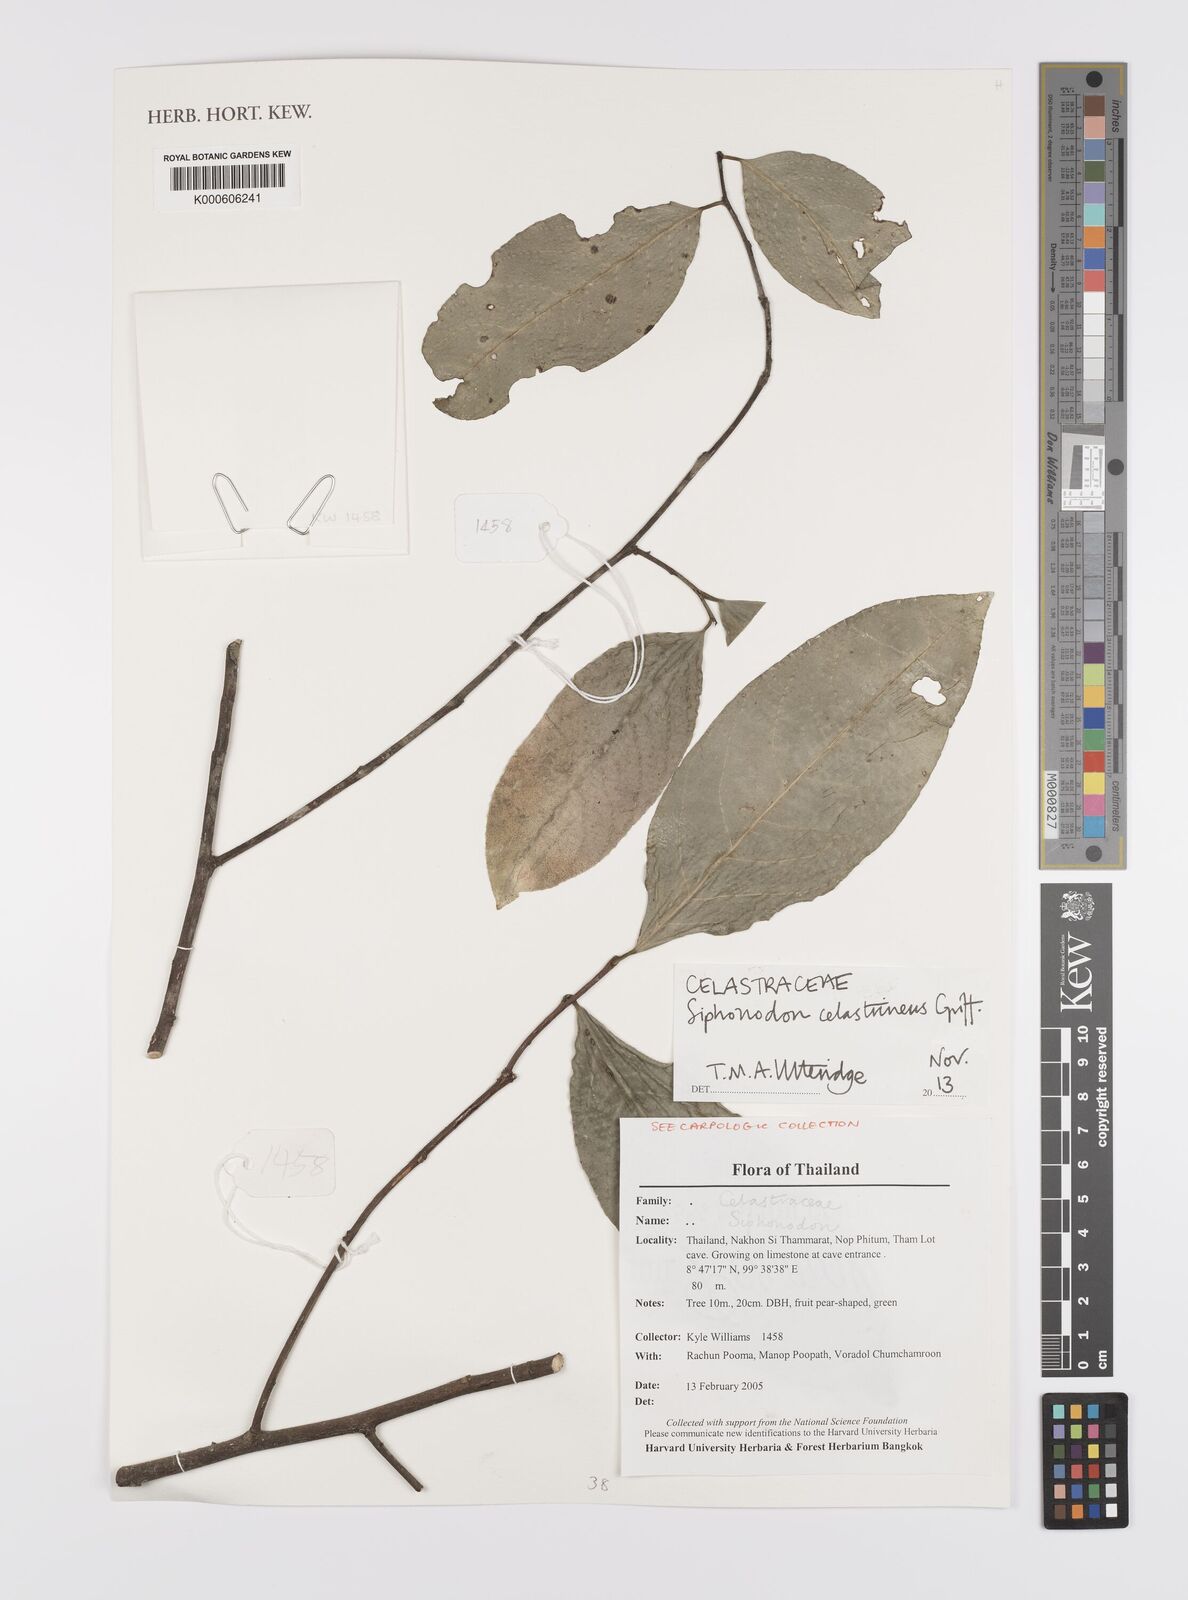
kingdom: Plantae
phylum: Tracheophyta
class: Magnoliopsida
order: Celastrales
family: Celastraceae
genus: Siphonodon
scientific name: Siphonodon celastrineus
